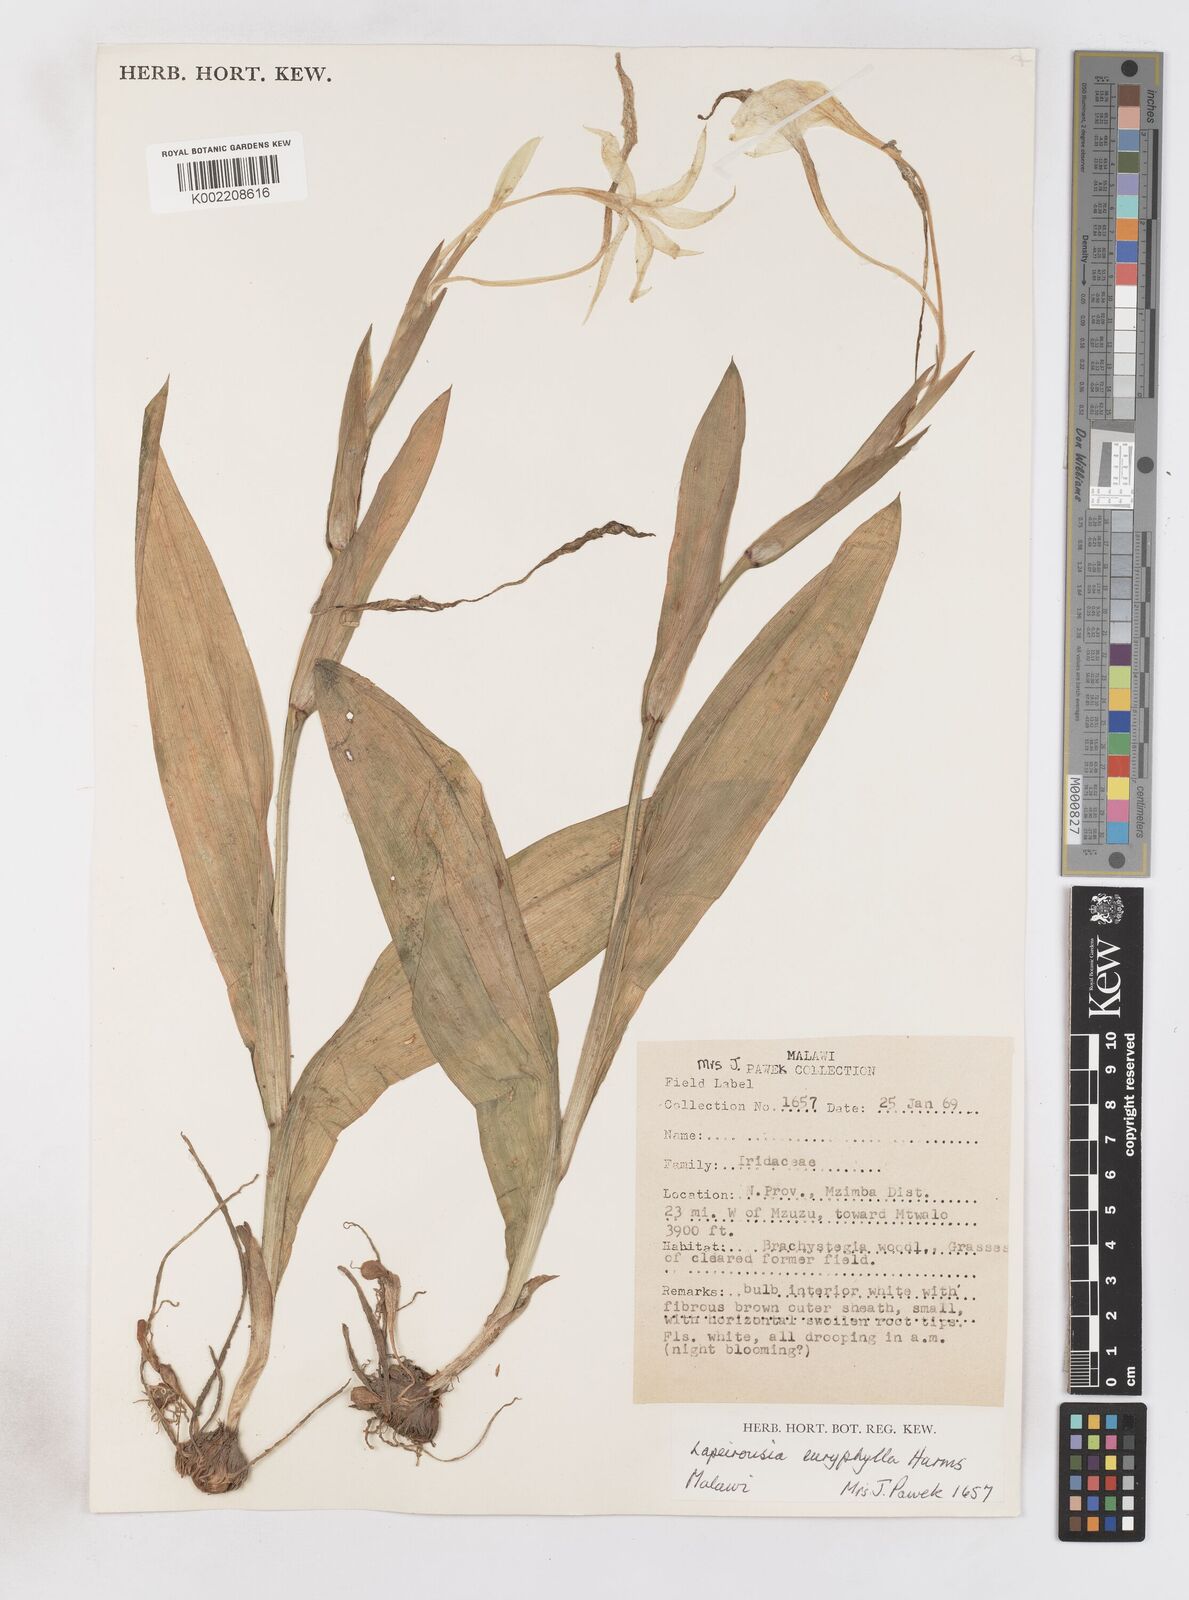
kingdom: Plantae
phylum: Tracheophyta
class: Liliopsida
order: Asparagales
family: Iridaceae
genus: Savannosiphon
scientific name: Savannosiphon euryphylla
